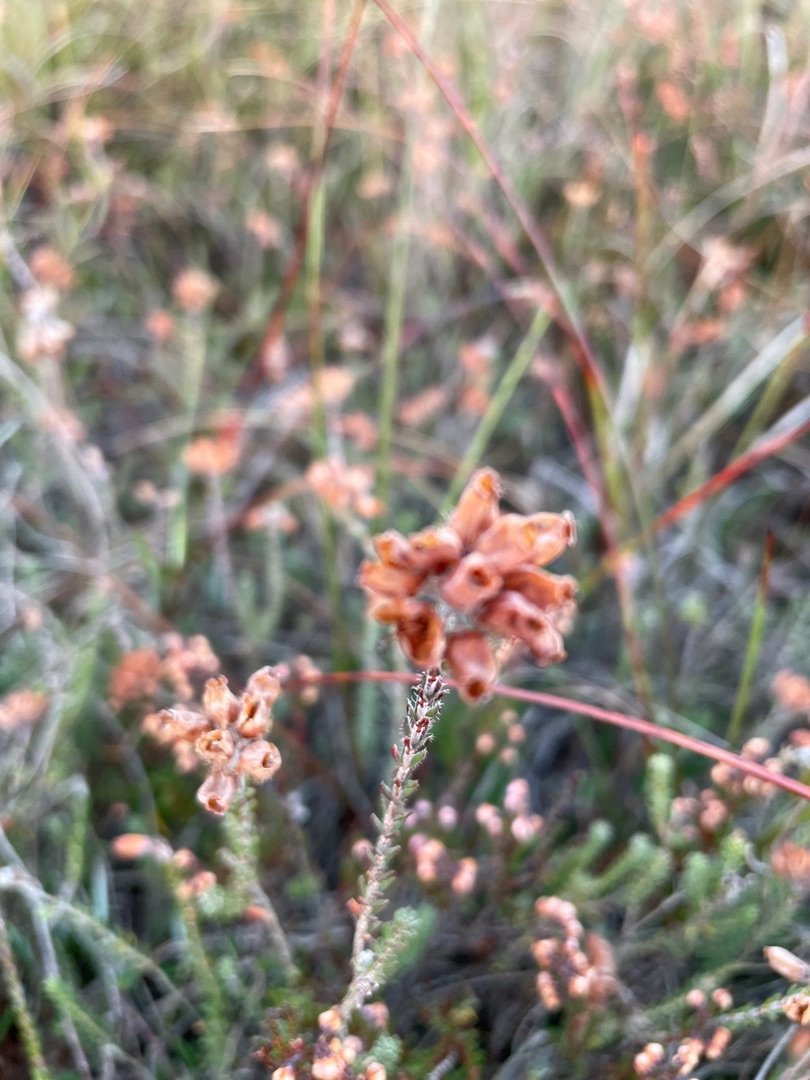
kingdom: Plantae
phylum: Tracheophyta
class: Magnoliopsida
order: Ericales
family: Ericaceae
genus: Erica
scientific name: Erica tetralix
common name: Klokkelyng
